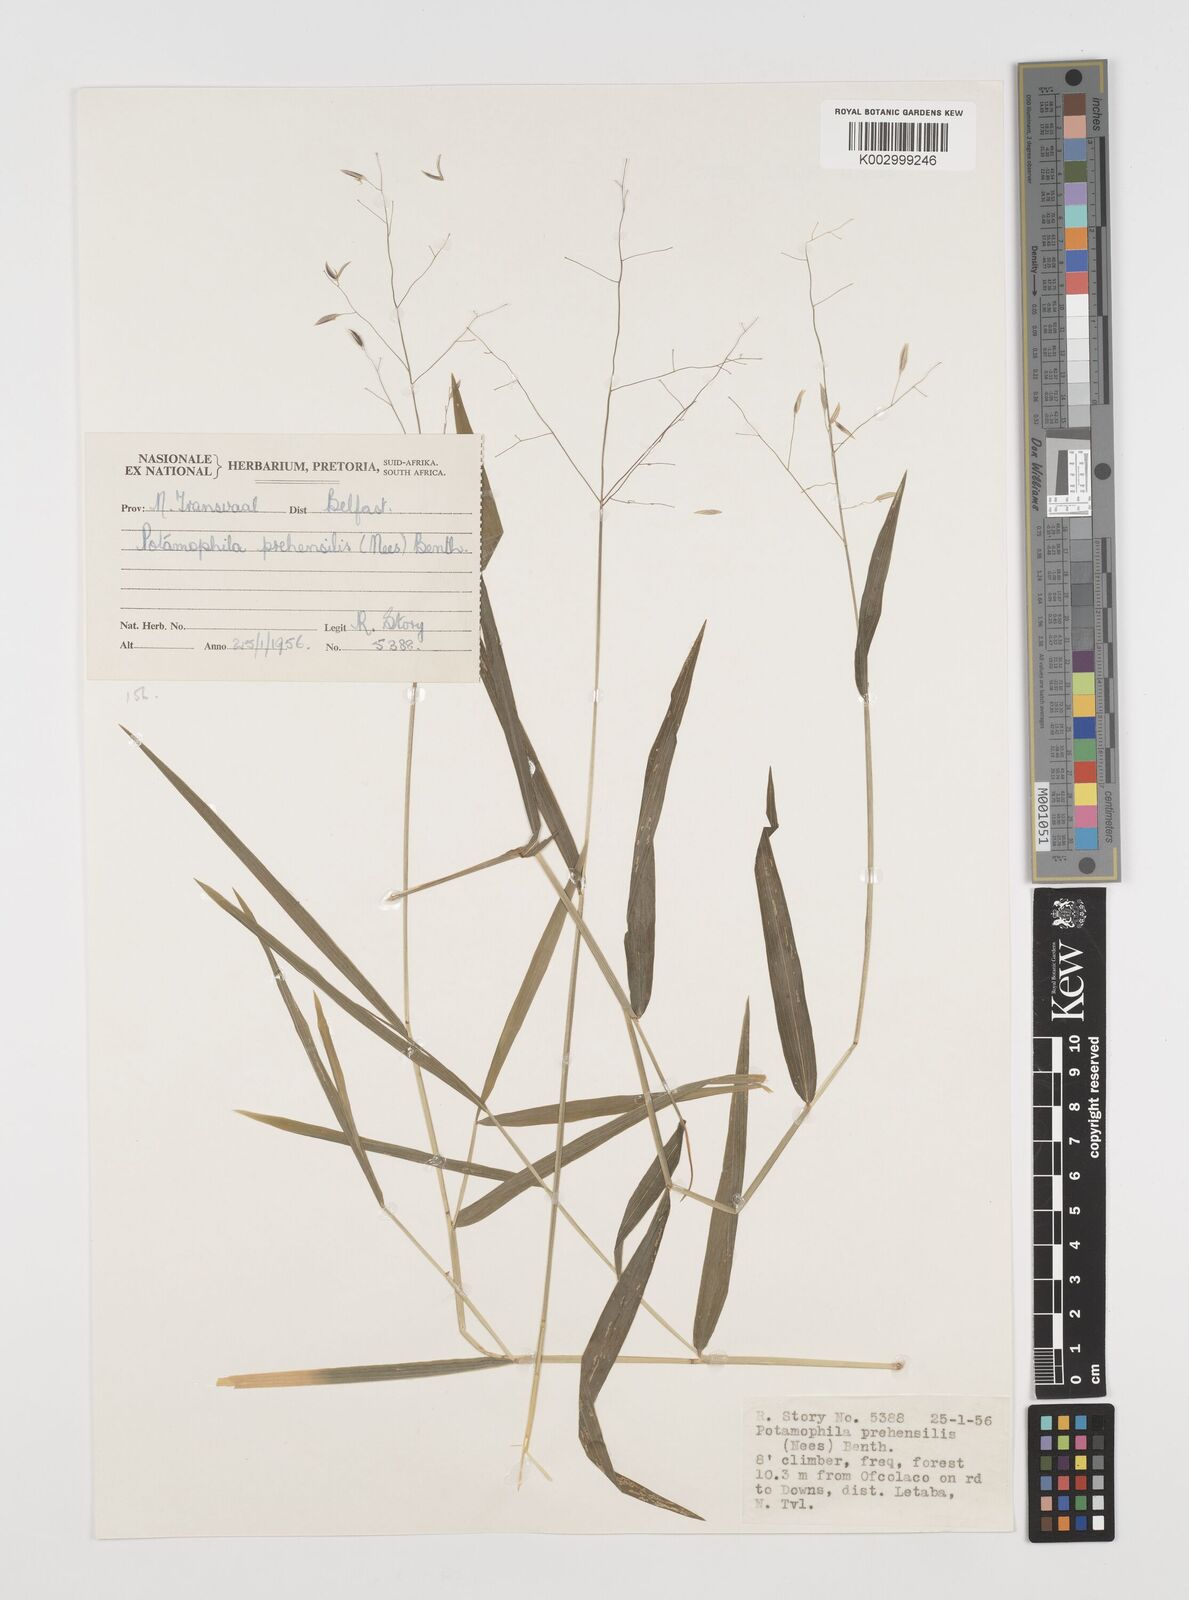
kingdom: Plantae
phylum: Tracheophyta
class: Liliopsida
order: Poales
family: Poaceae
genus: Prosphytochloa
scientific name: Prosphytochloa prehensilis
